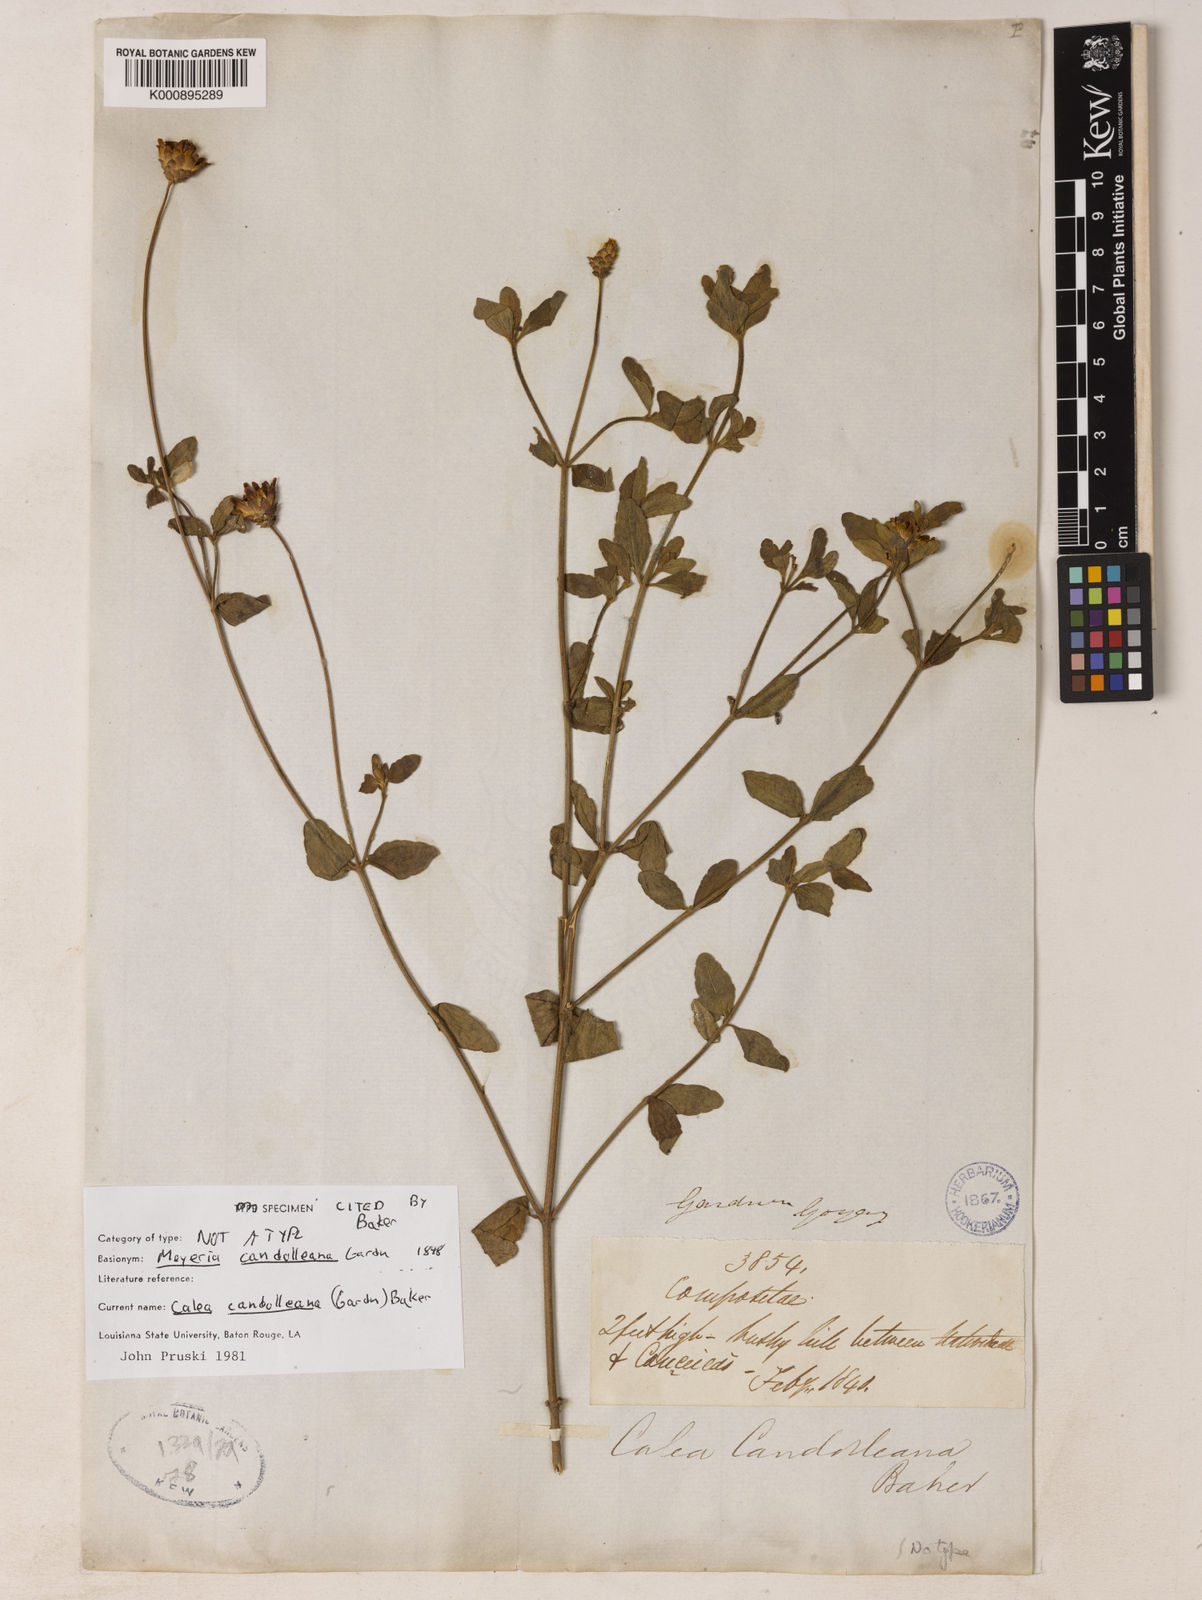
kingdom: Plantae
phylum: Tracheophyta
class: Magnoliopsida
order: Asterales
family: Asteraceae
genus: Calea
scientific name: Calea candolleana
